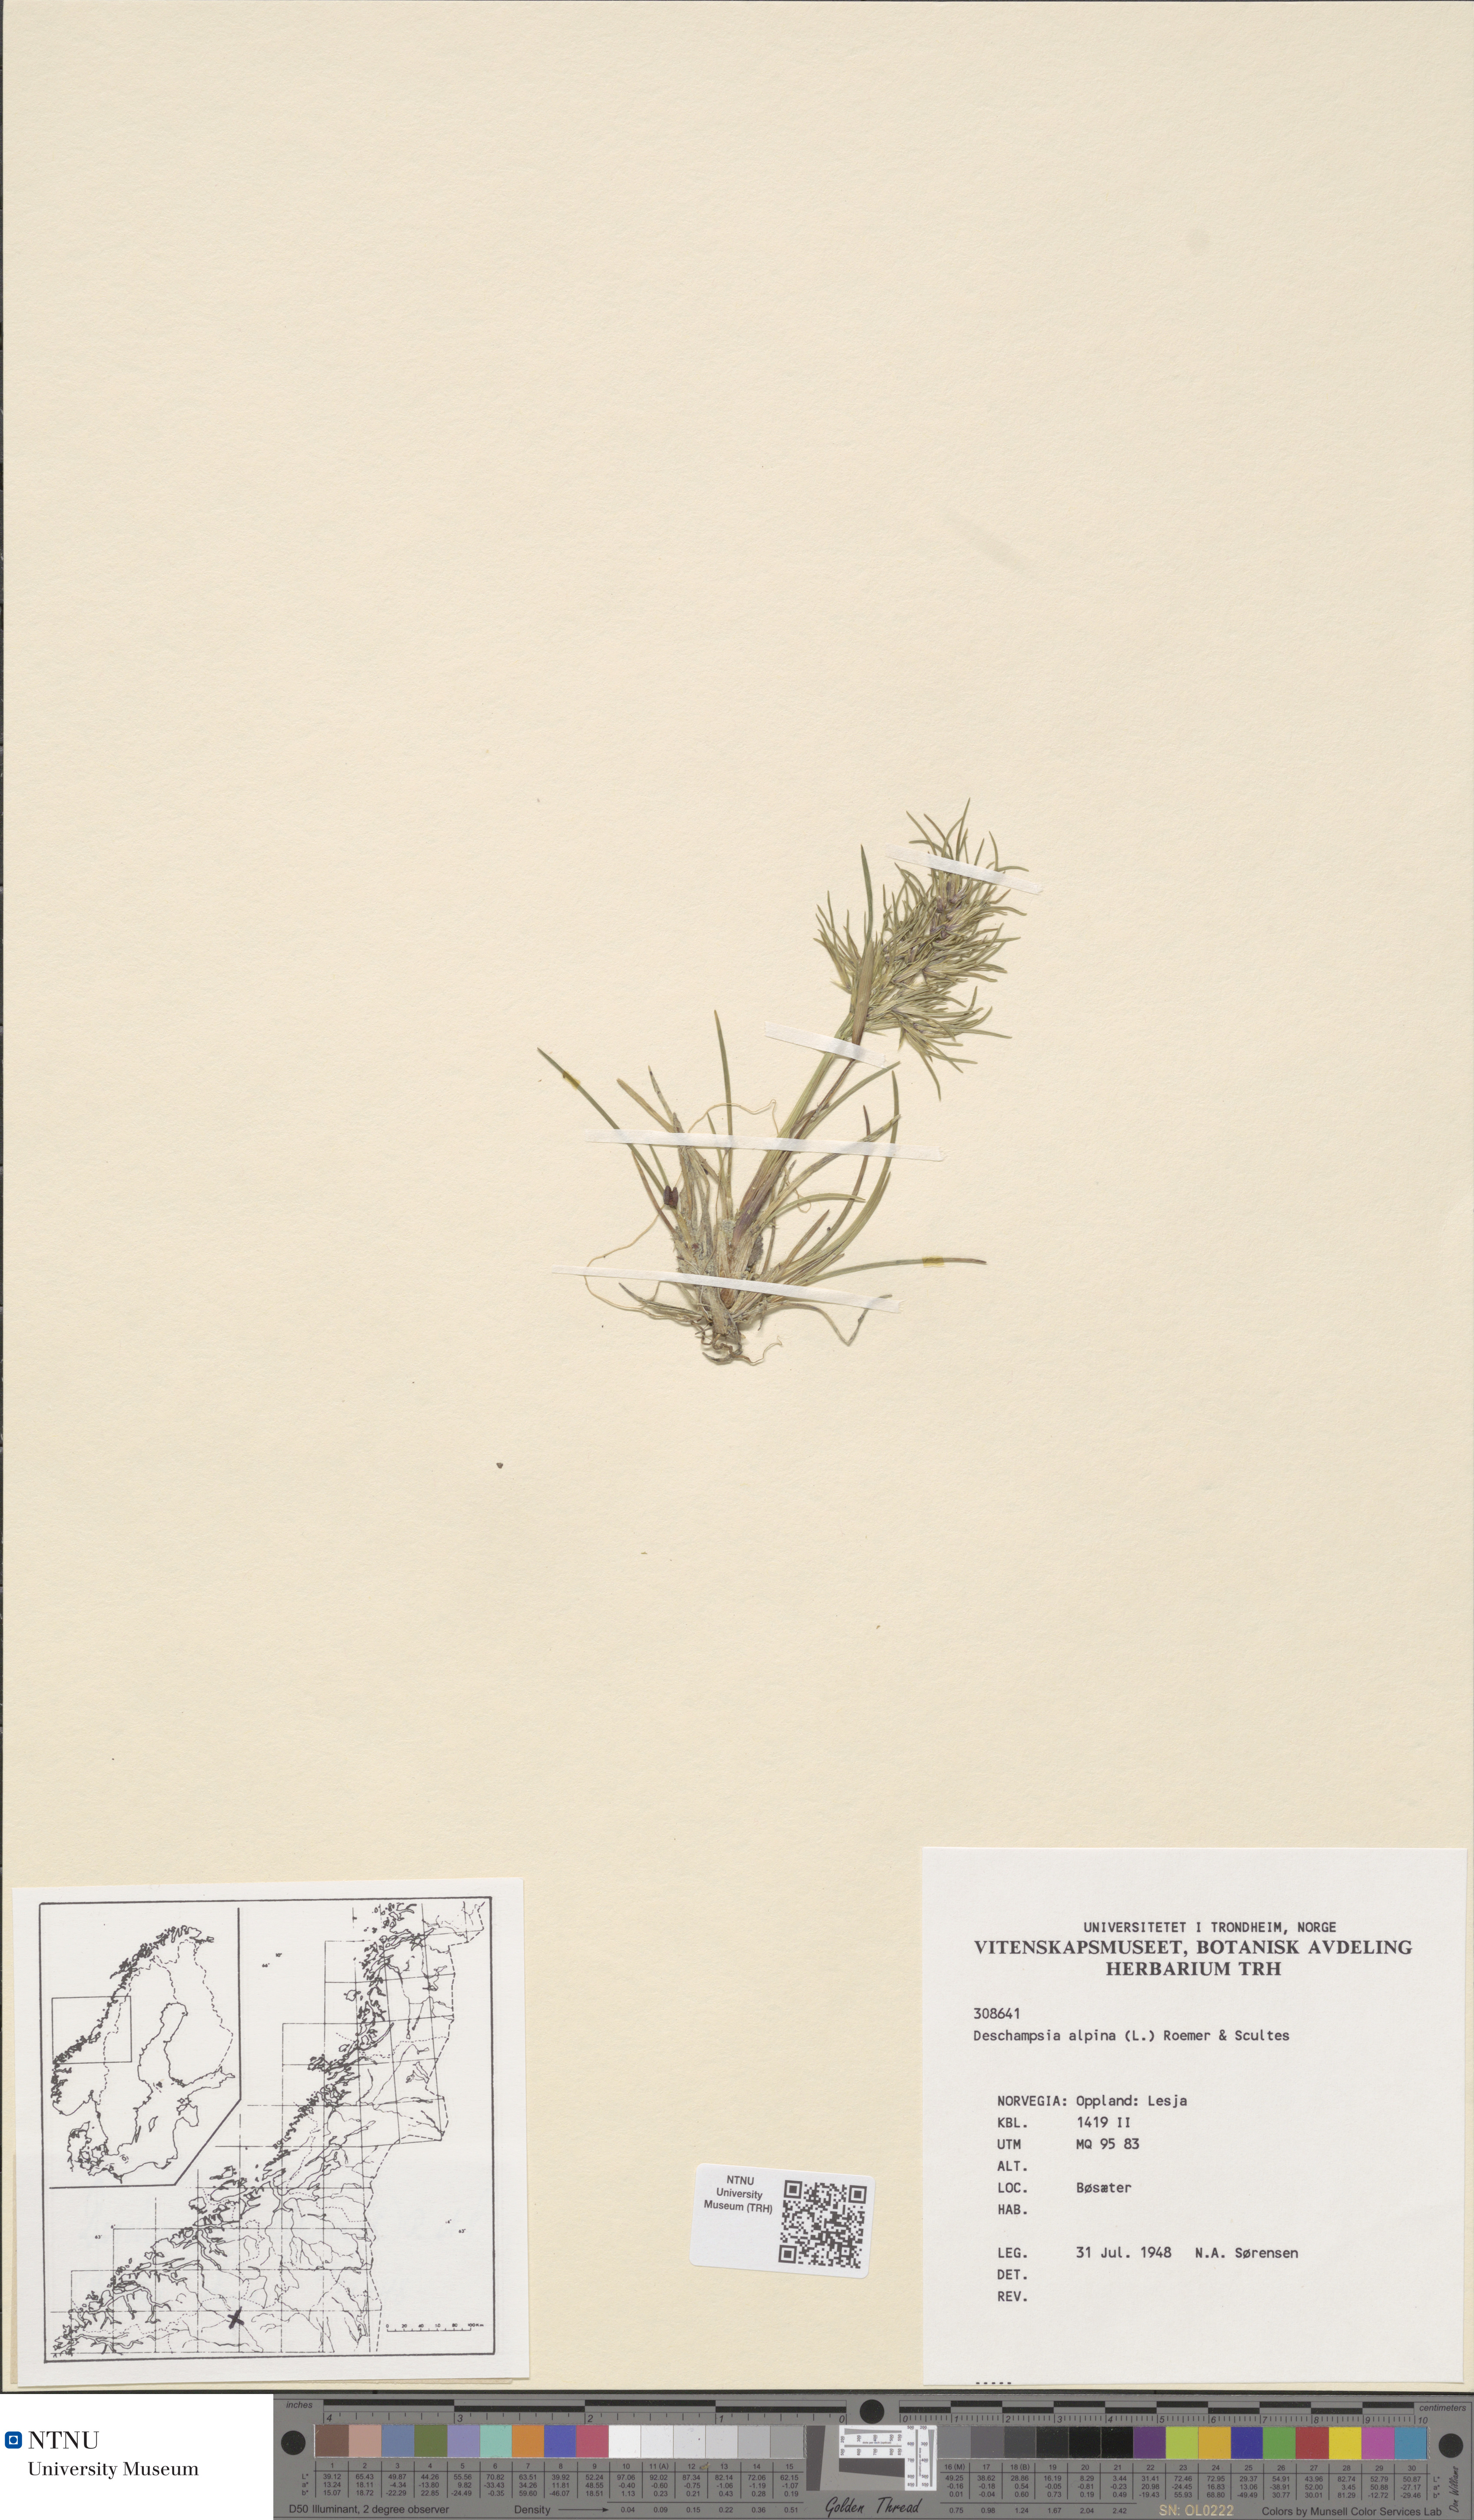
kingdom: Plantae
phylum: Tracheophyta
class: Liliopsida
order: Poales
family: Poaceae
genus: Deschampsia
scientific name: Deschampsia cespitosa
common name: Tufted hair-grass
